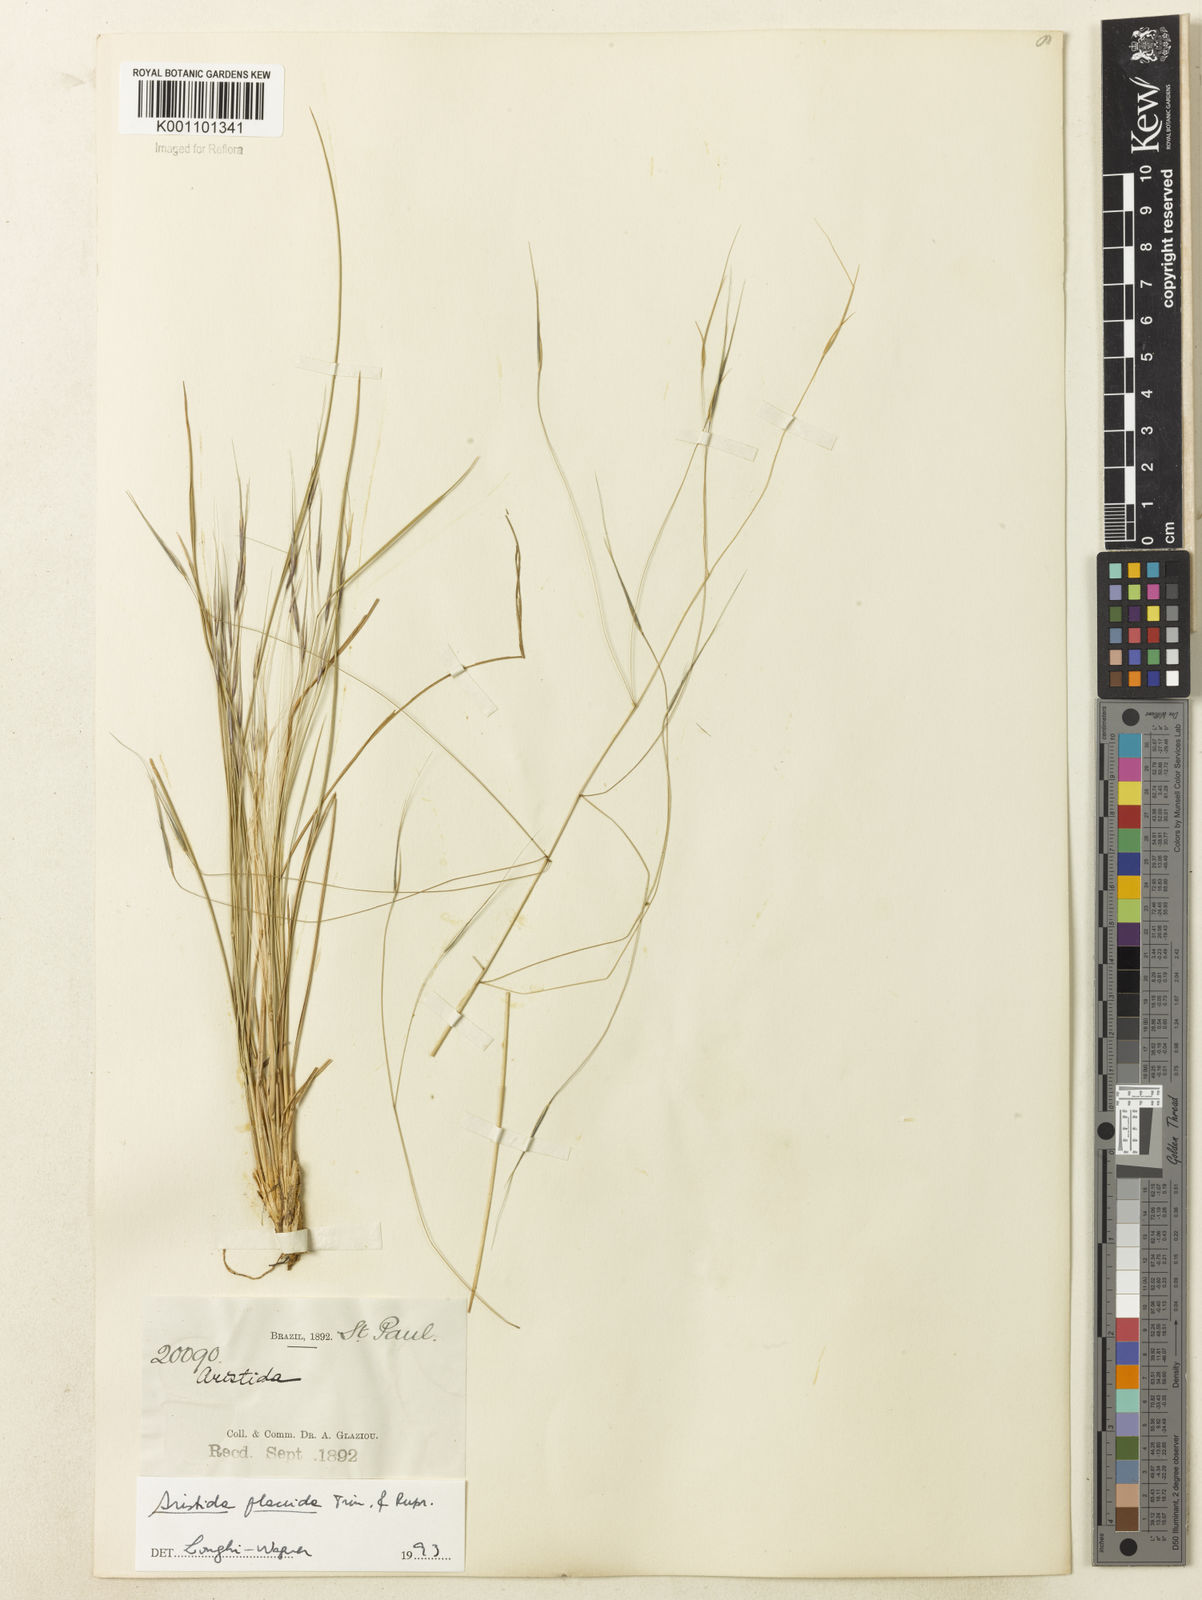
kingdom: Plantae
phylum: Tracheophyta
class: Liliopsida
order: Poales
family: Poaceae
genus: Aristida
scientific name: Aristida flaccida
